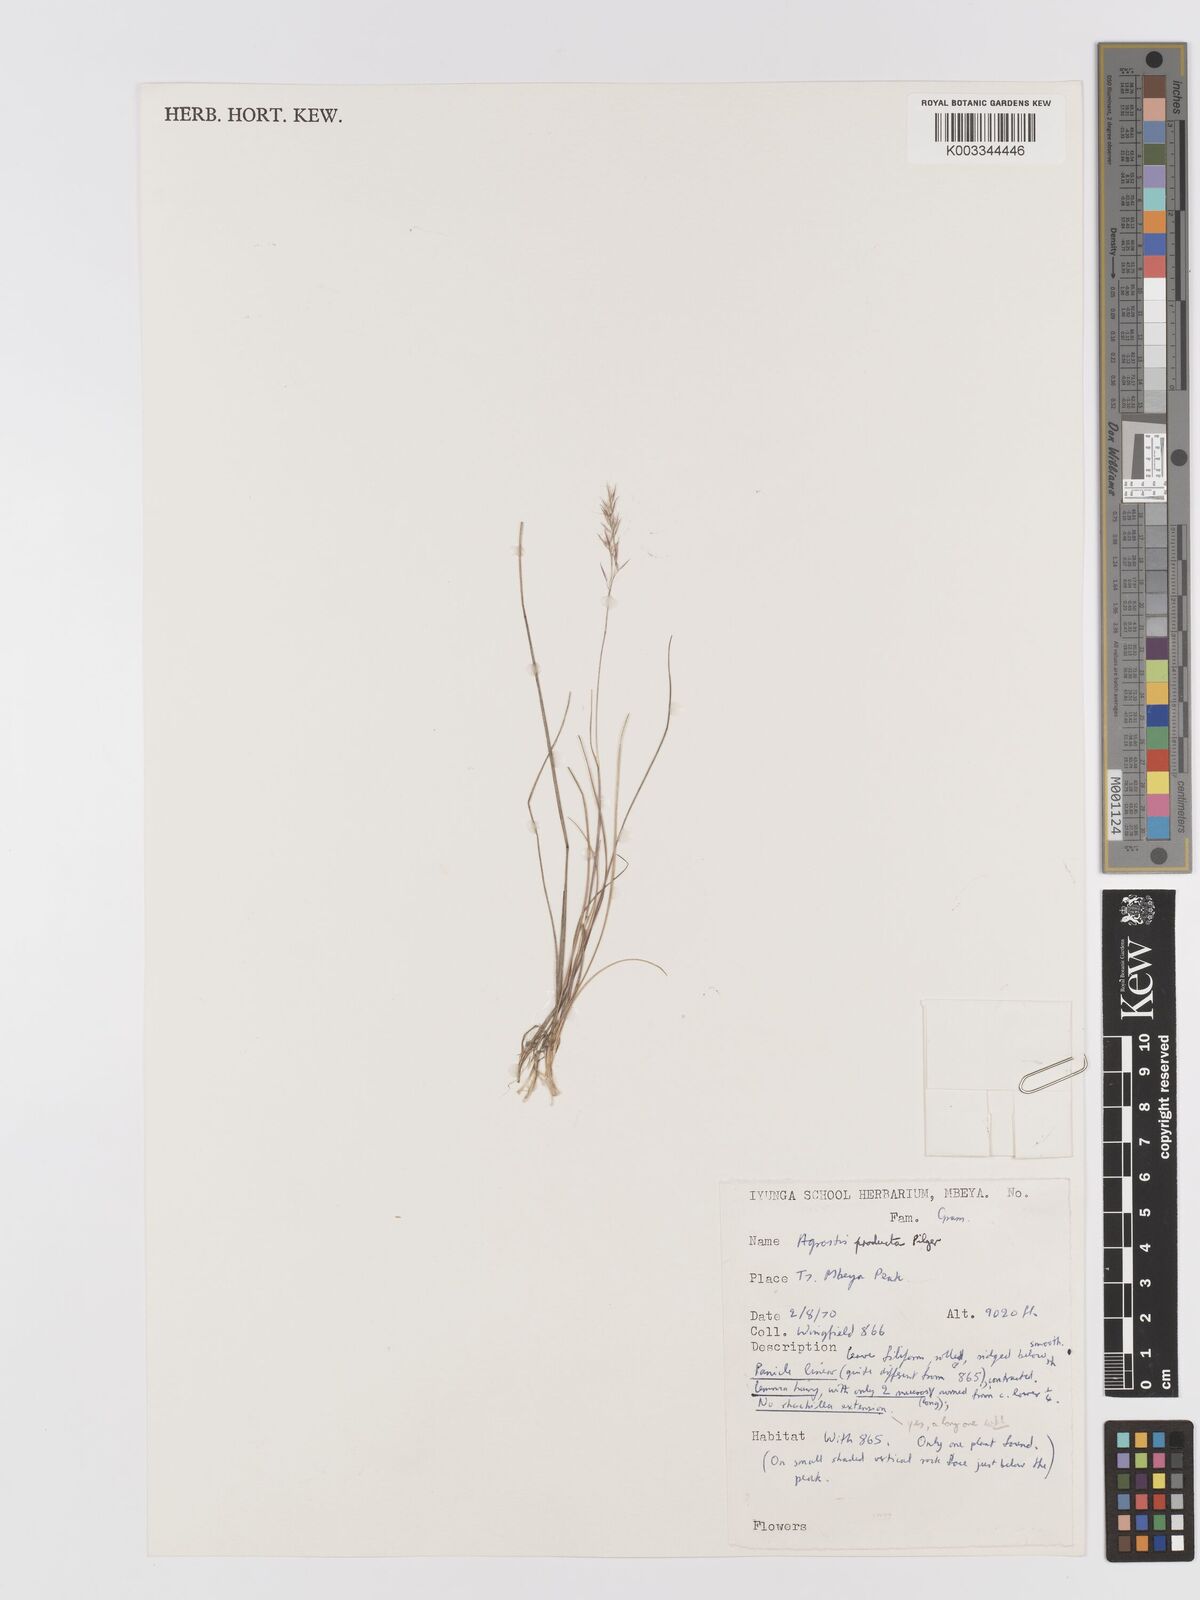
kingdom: Plantae
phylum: Tracheophyta
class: Liliopsida
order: Poales
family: Poaceae
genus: Agrostis
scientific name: Agrostis producta
